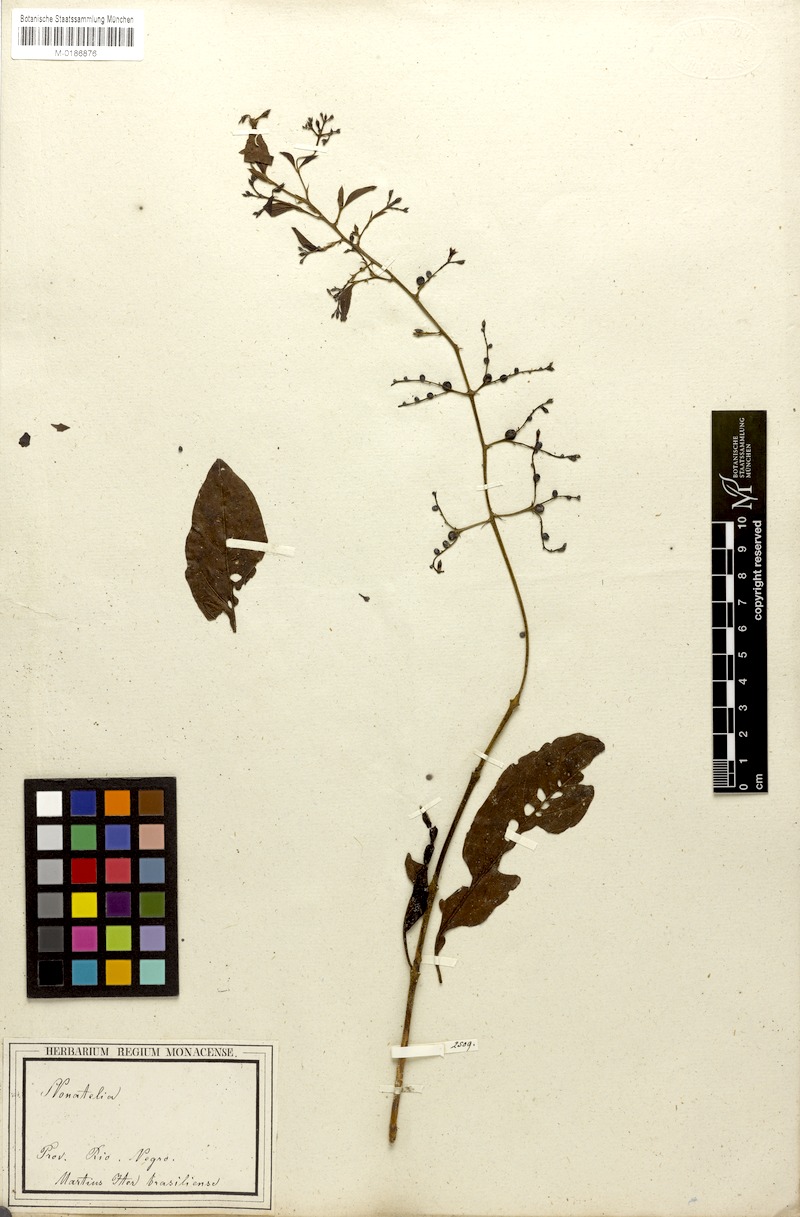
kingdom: Plantae
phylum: Tracheophyta
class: Magnoliopsida
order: Gentianales
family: Rubiaceae
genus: Bertiera
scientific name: Bertiera guianensis
